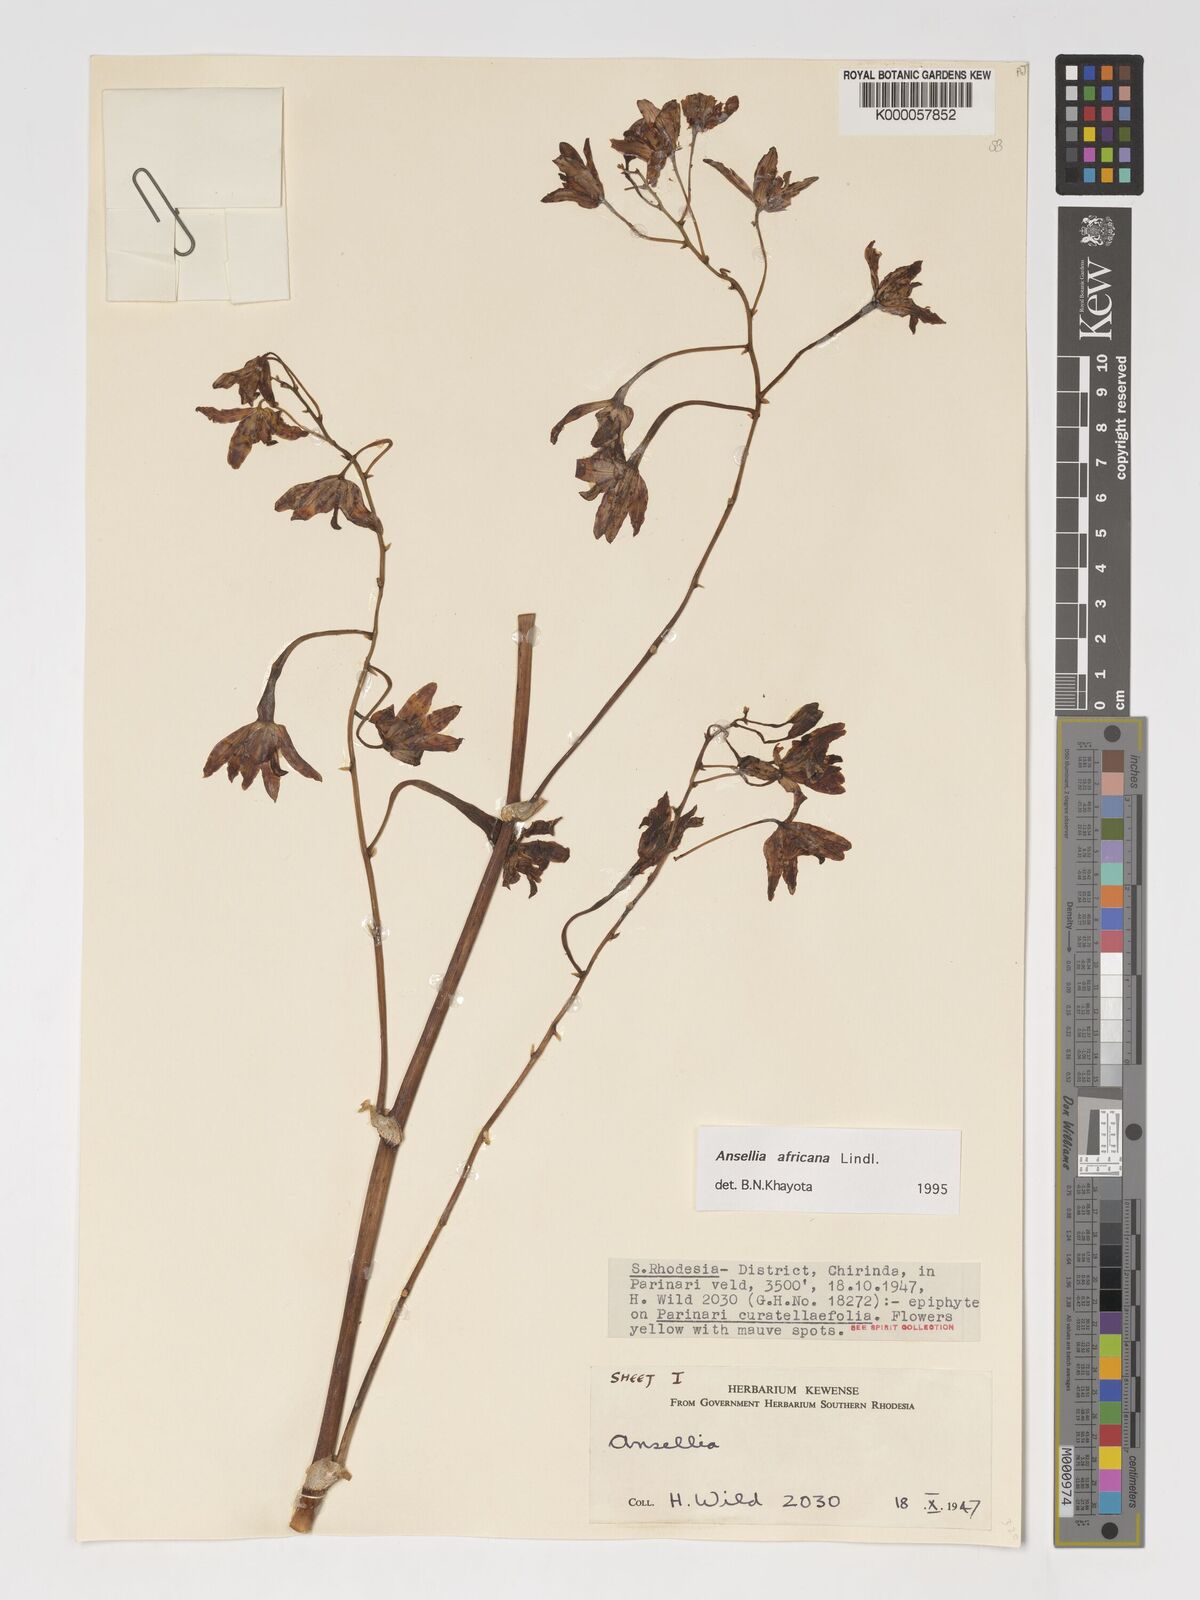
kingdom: Plantae
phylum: Tracheophyta
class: Liliopsida
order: Asparagales
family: Orchidaceae
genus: Ansellia
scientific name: Ansellia africana
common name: African ansellia
